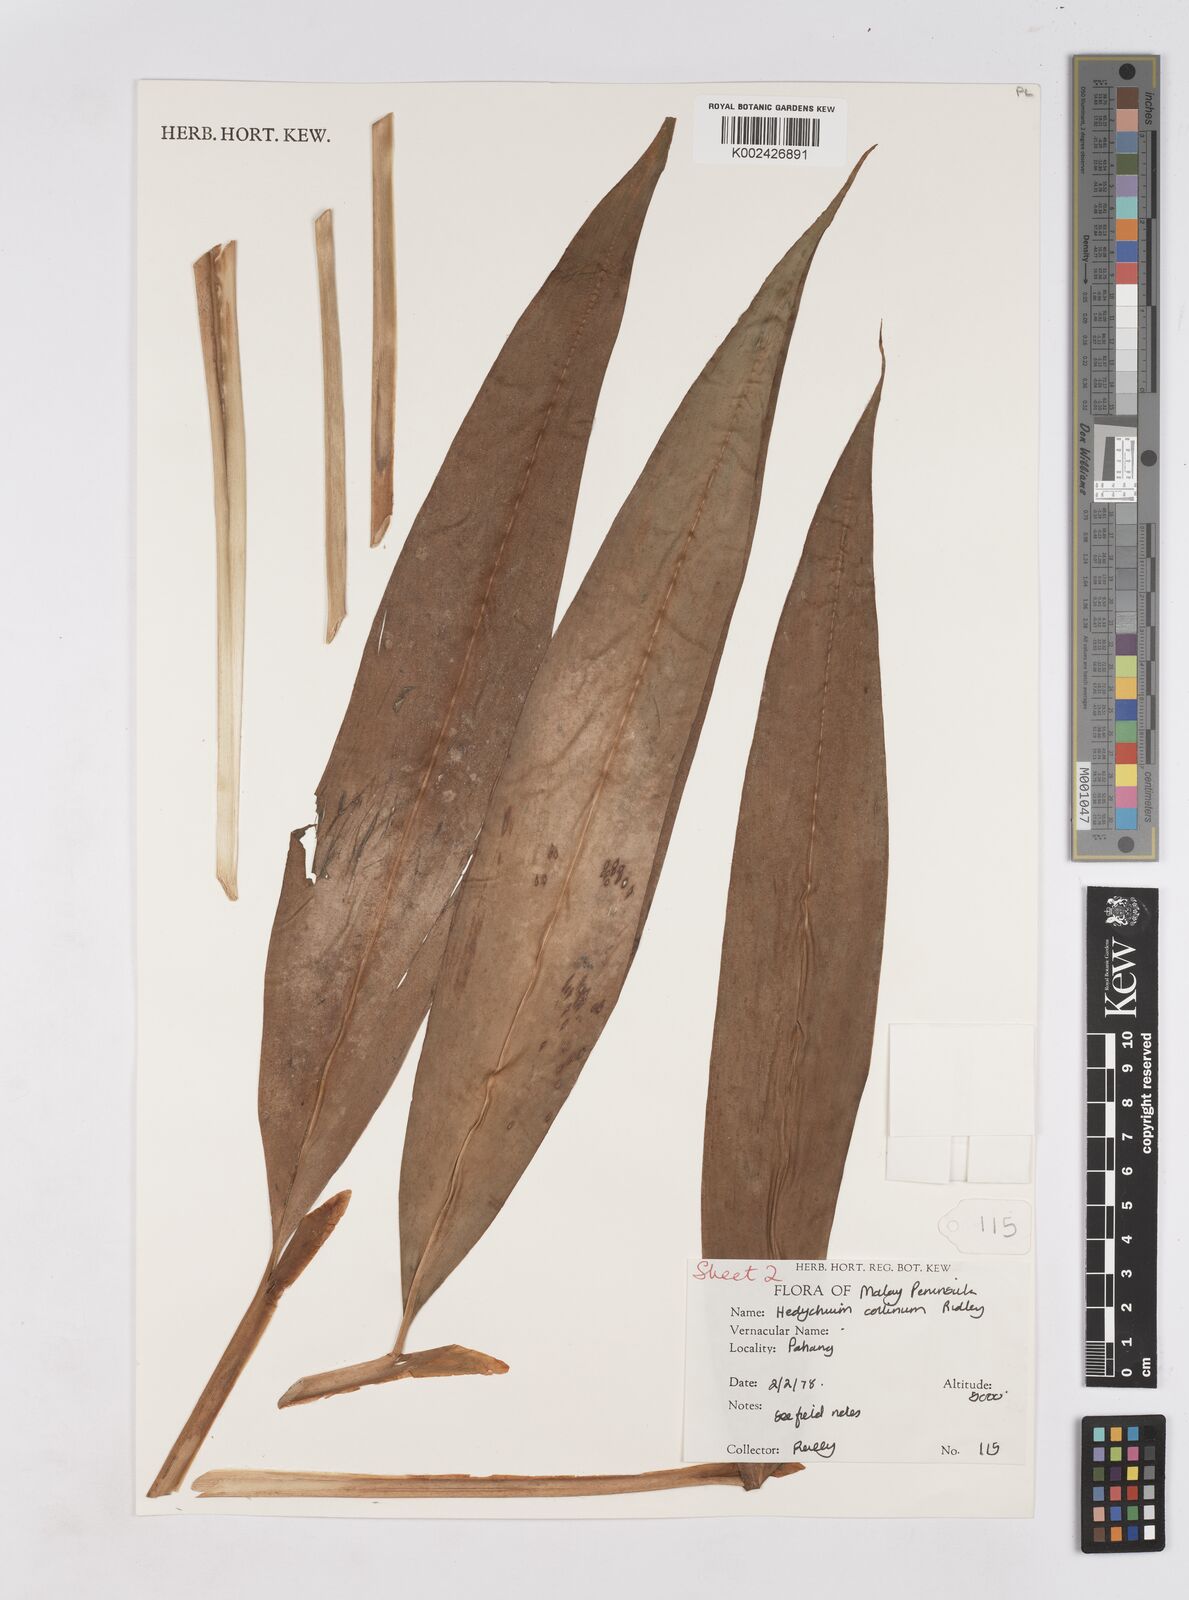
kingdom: Plantae
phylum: Tracheophyta
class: Liliopsida
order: Zingiberales
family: Zingiberaceae
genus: Hedychium
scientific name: Hedychium villosum
